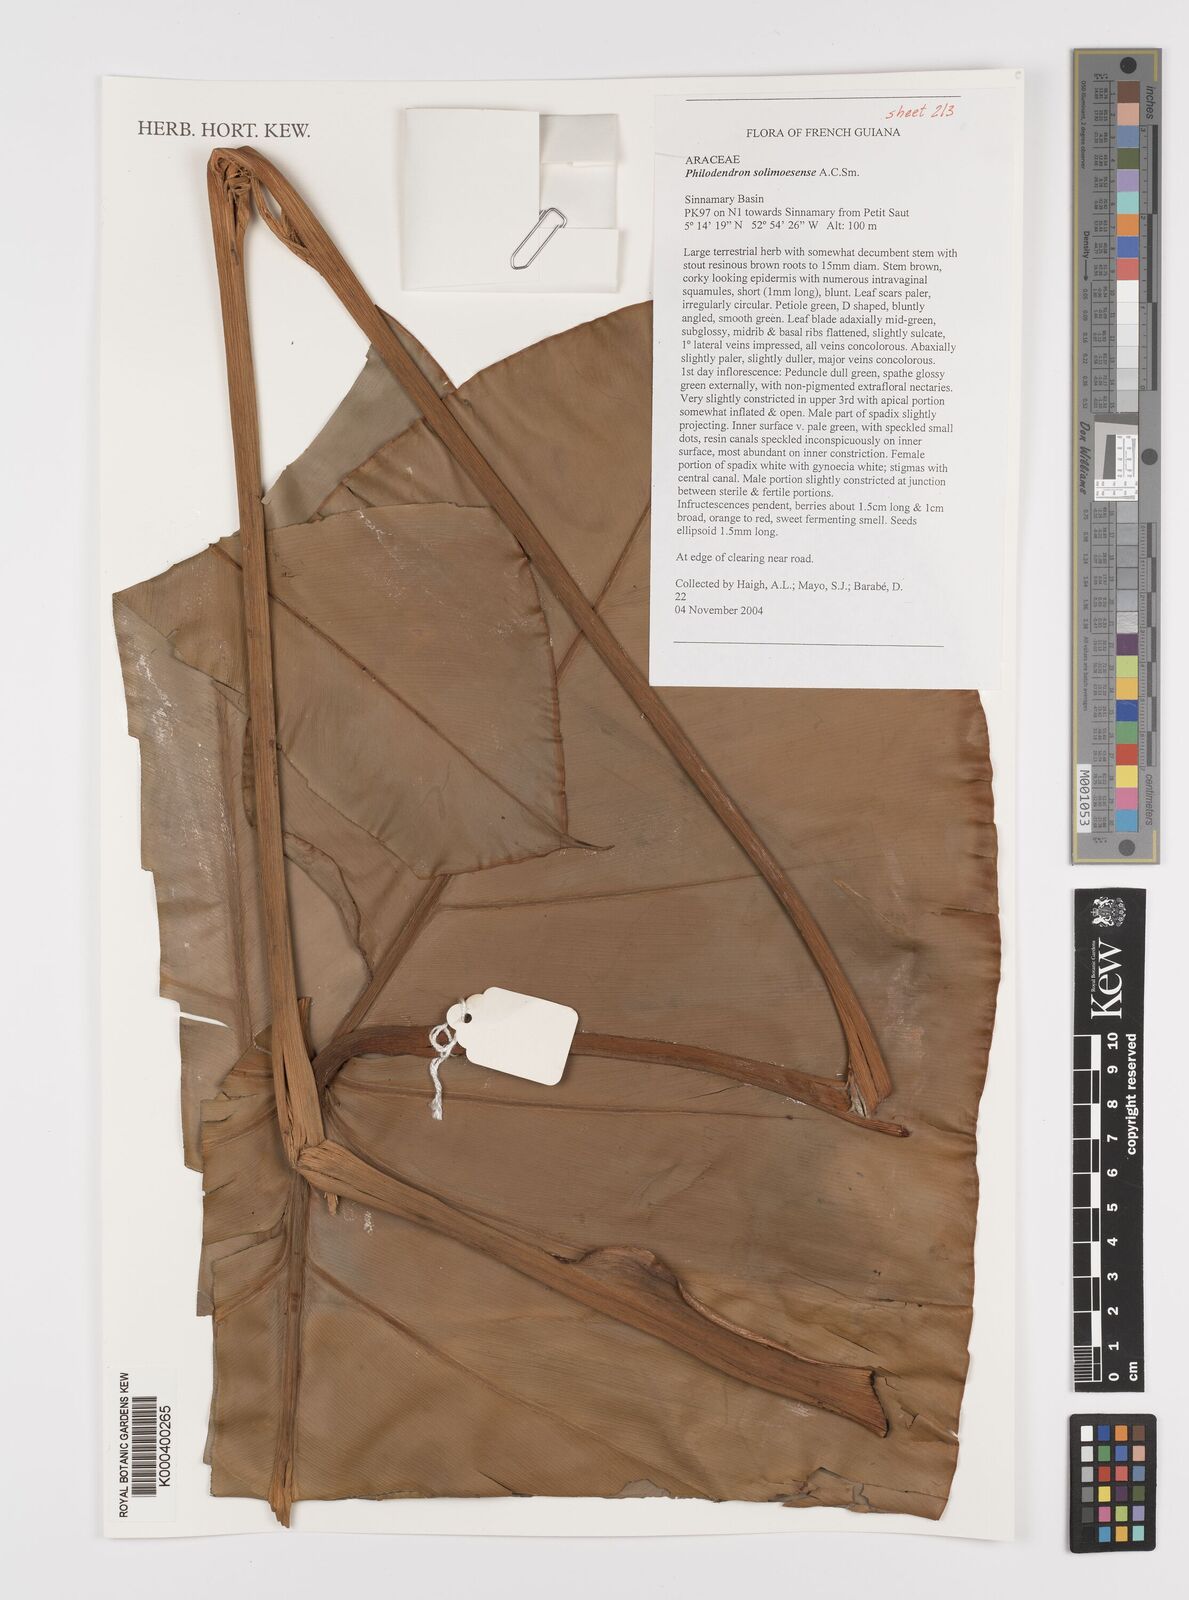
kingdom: Plantae
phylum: Tracheophyta
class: Liliopsida
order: Alismatales
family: Araceae
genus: Thaumatophyllum
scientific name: Thaumatophyllum solimoesense
